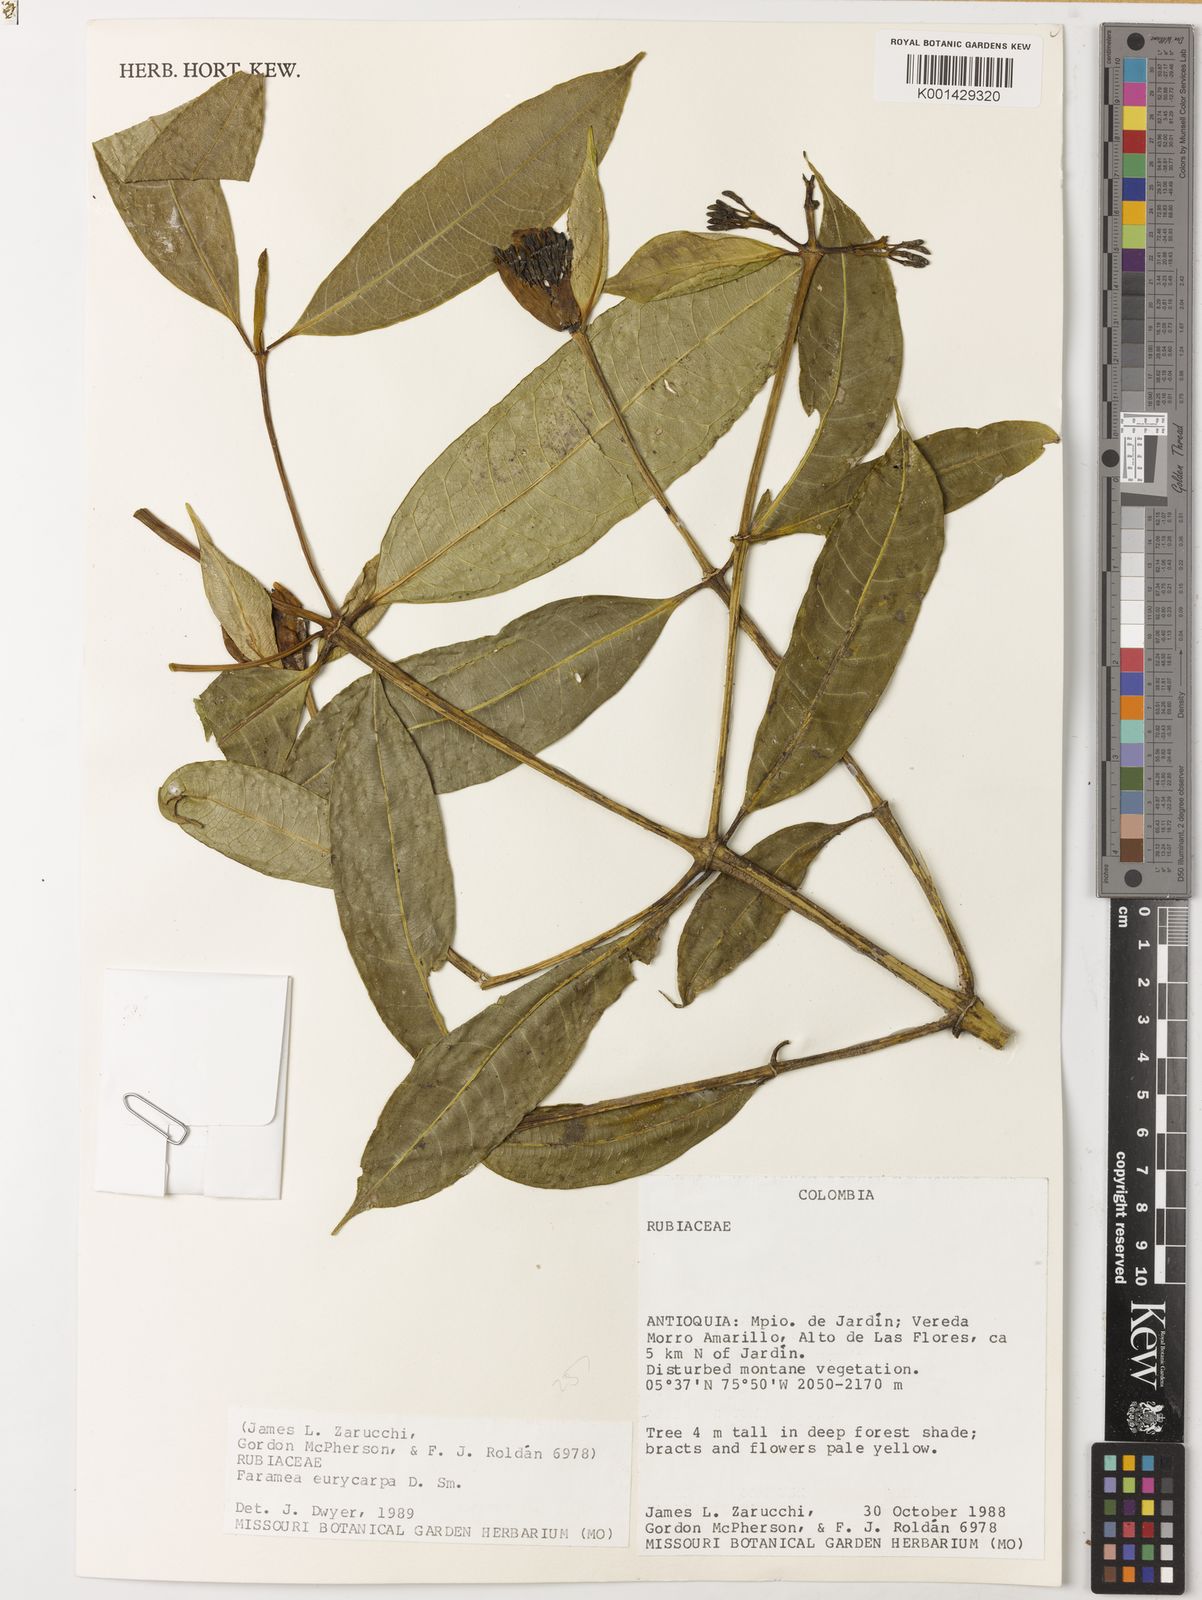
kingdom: Plantae
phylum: Tracheophyta
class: Magnoliopsida
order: Gentianales
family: Rubiaceae
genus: Faramea
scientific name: Faramea eurycarpa
